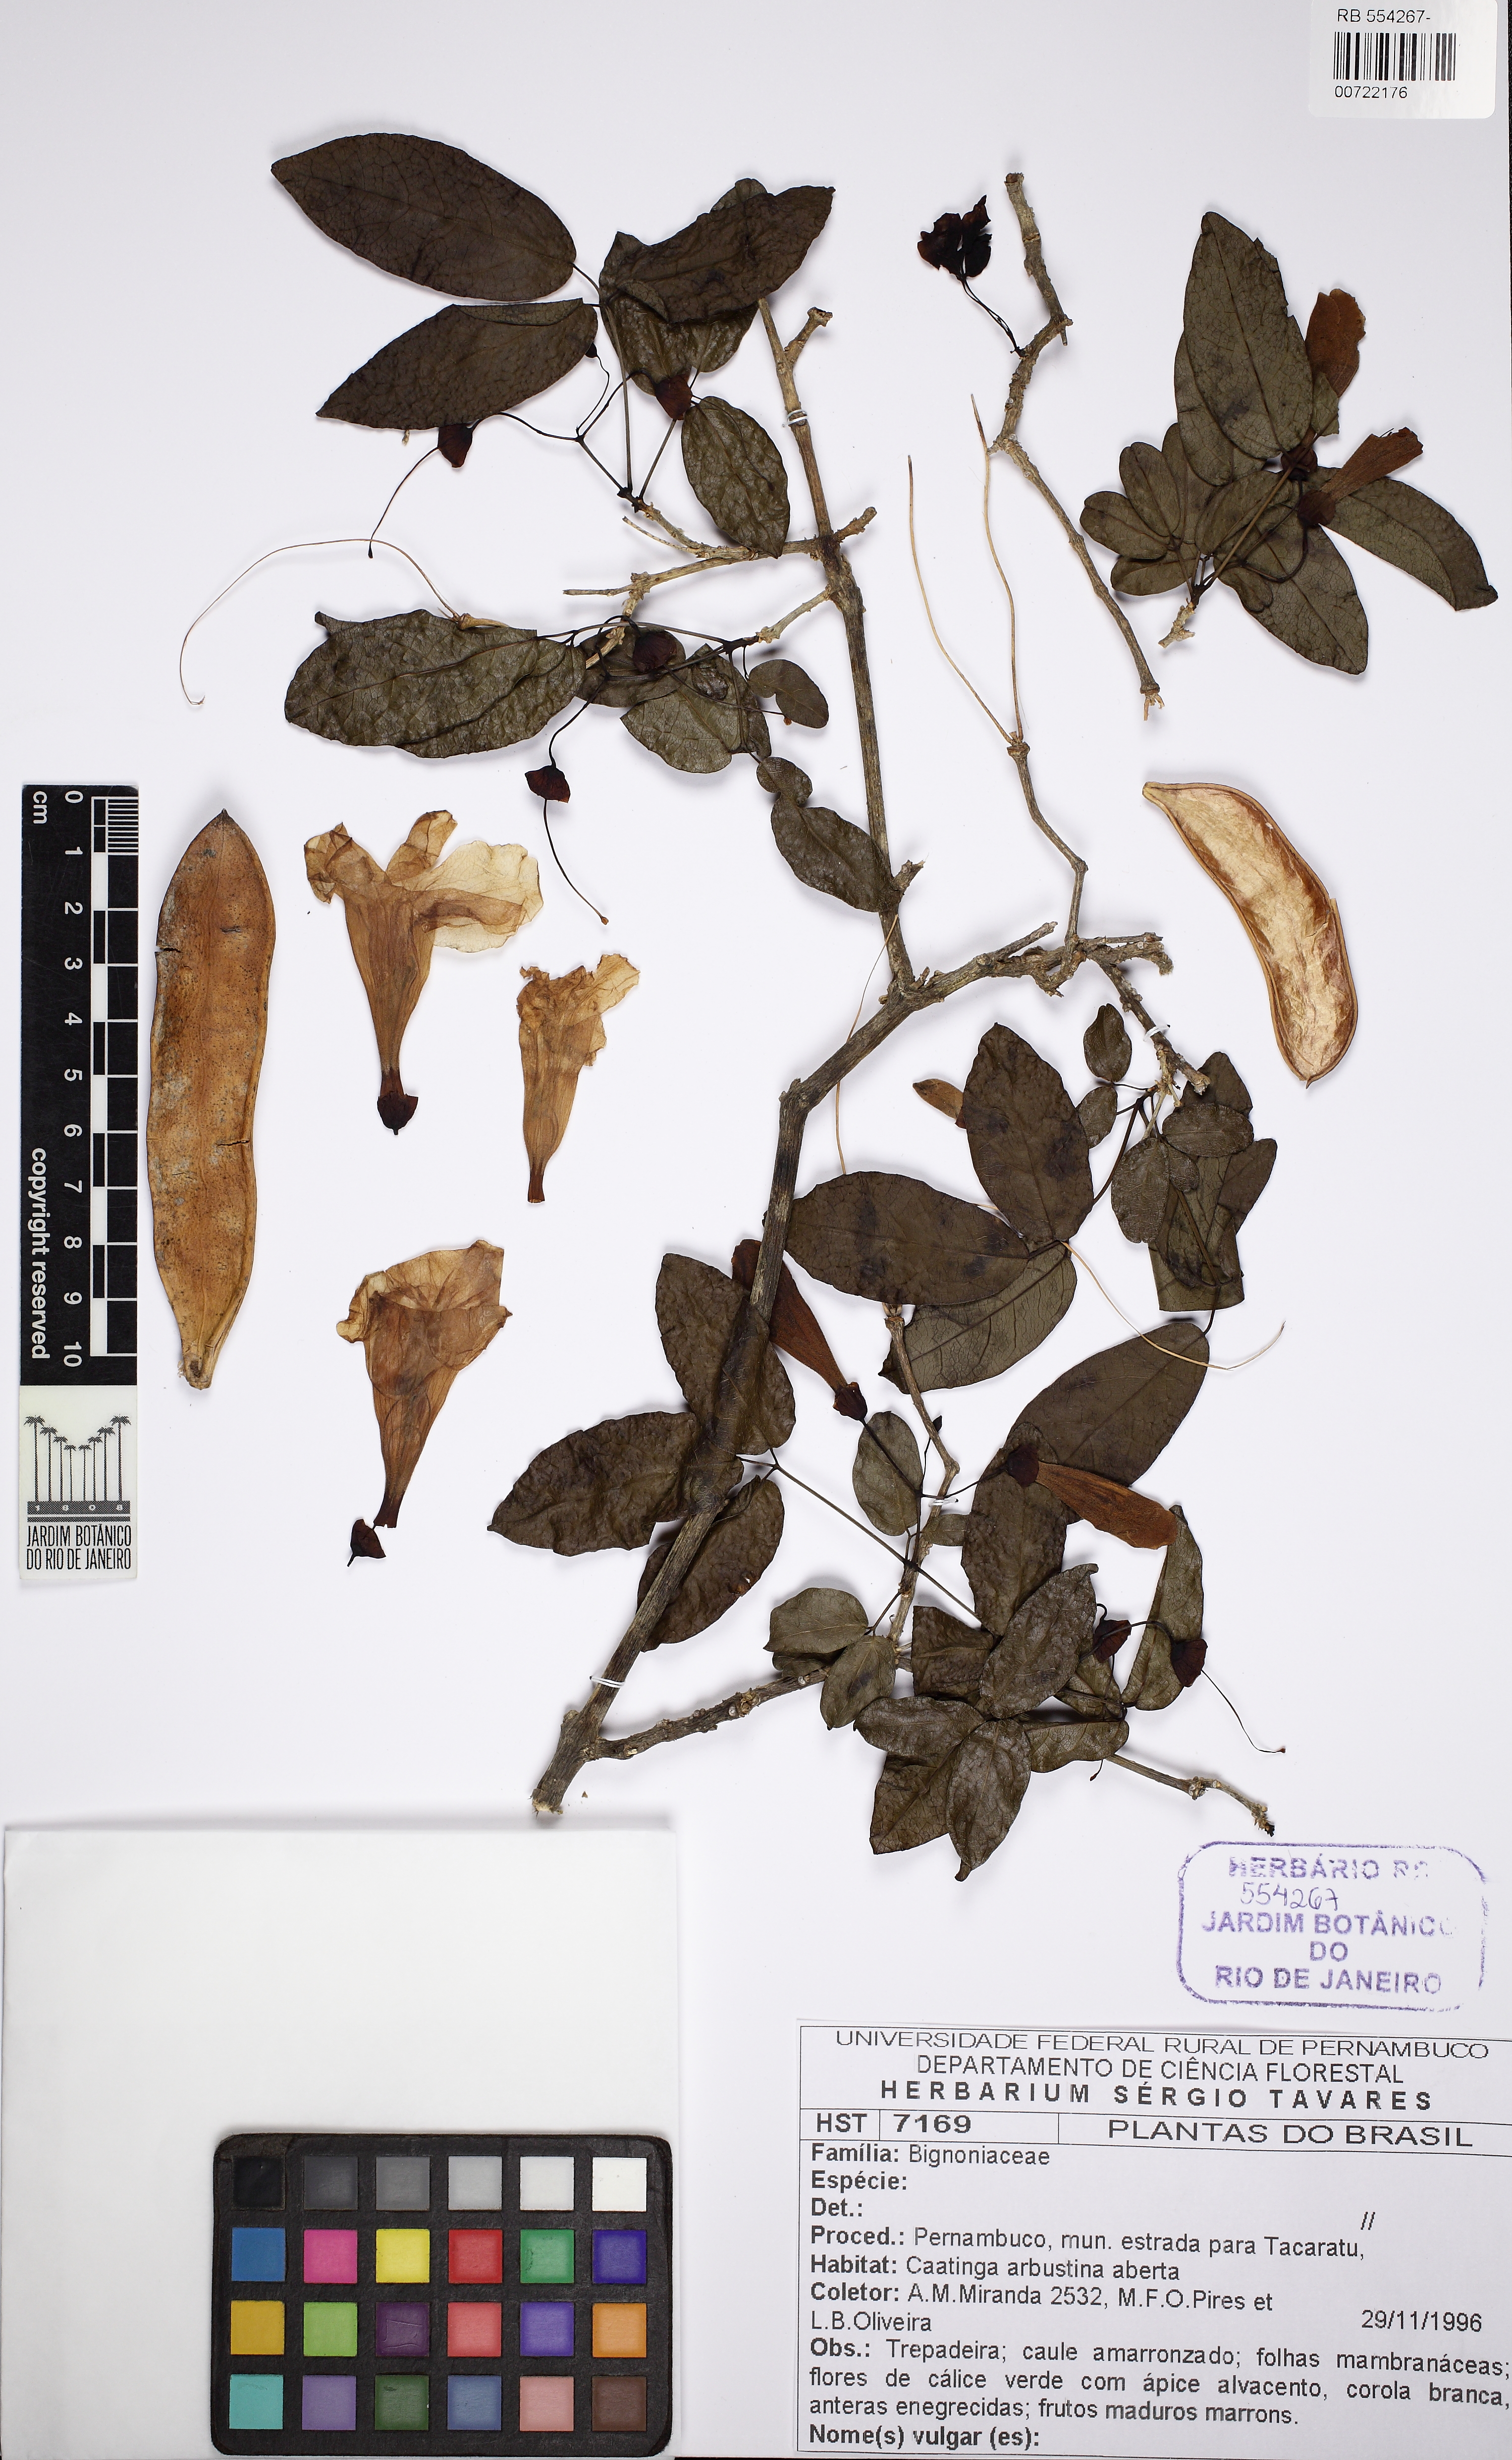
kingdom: Plantae
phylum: Tracheophyta
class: Magnoliopsida
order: Lamiales
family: Bignoniaceae
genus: Bignonia
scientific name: Bignonia
